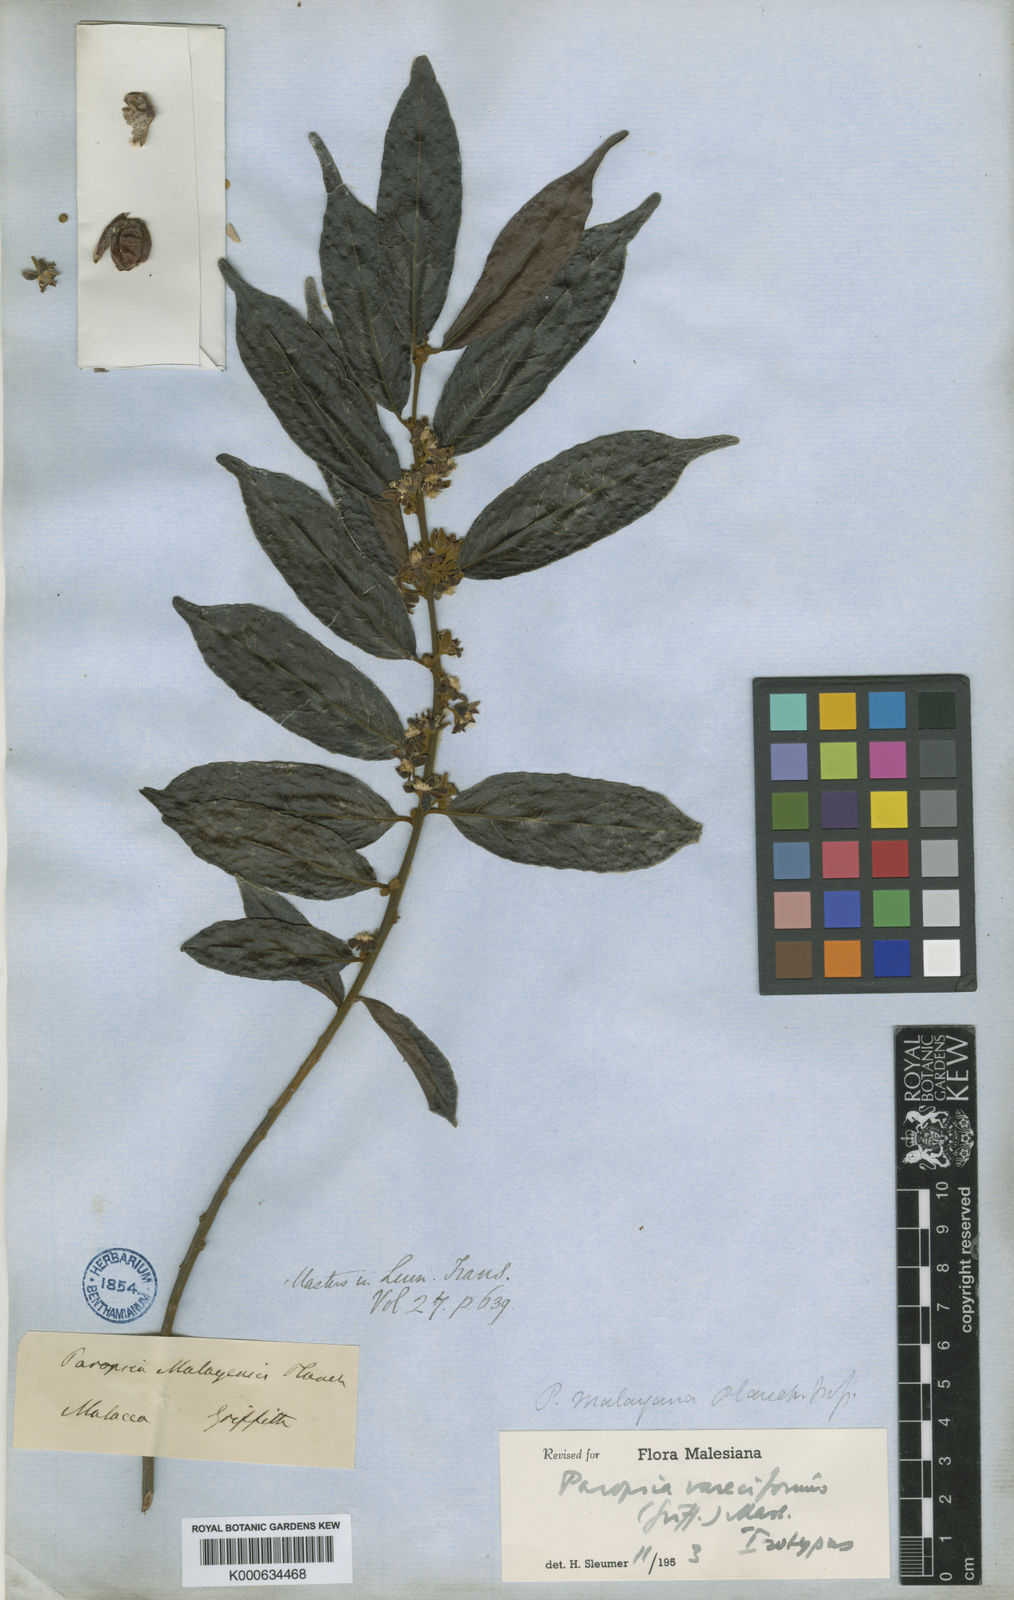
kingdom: Plantae
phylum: Tracheophyta
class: Magnoliopsida
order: Malpighiales
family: Passifloraceae
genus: Paropsia
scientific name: Paropsia vareciformis
